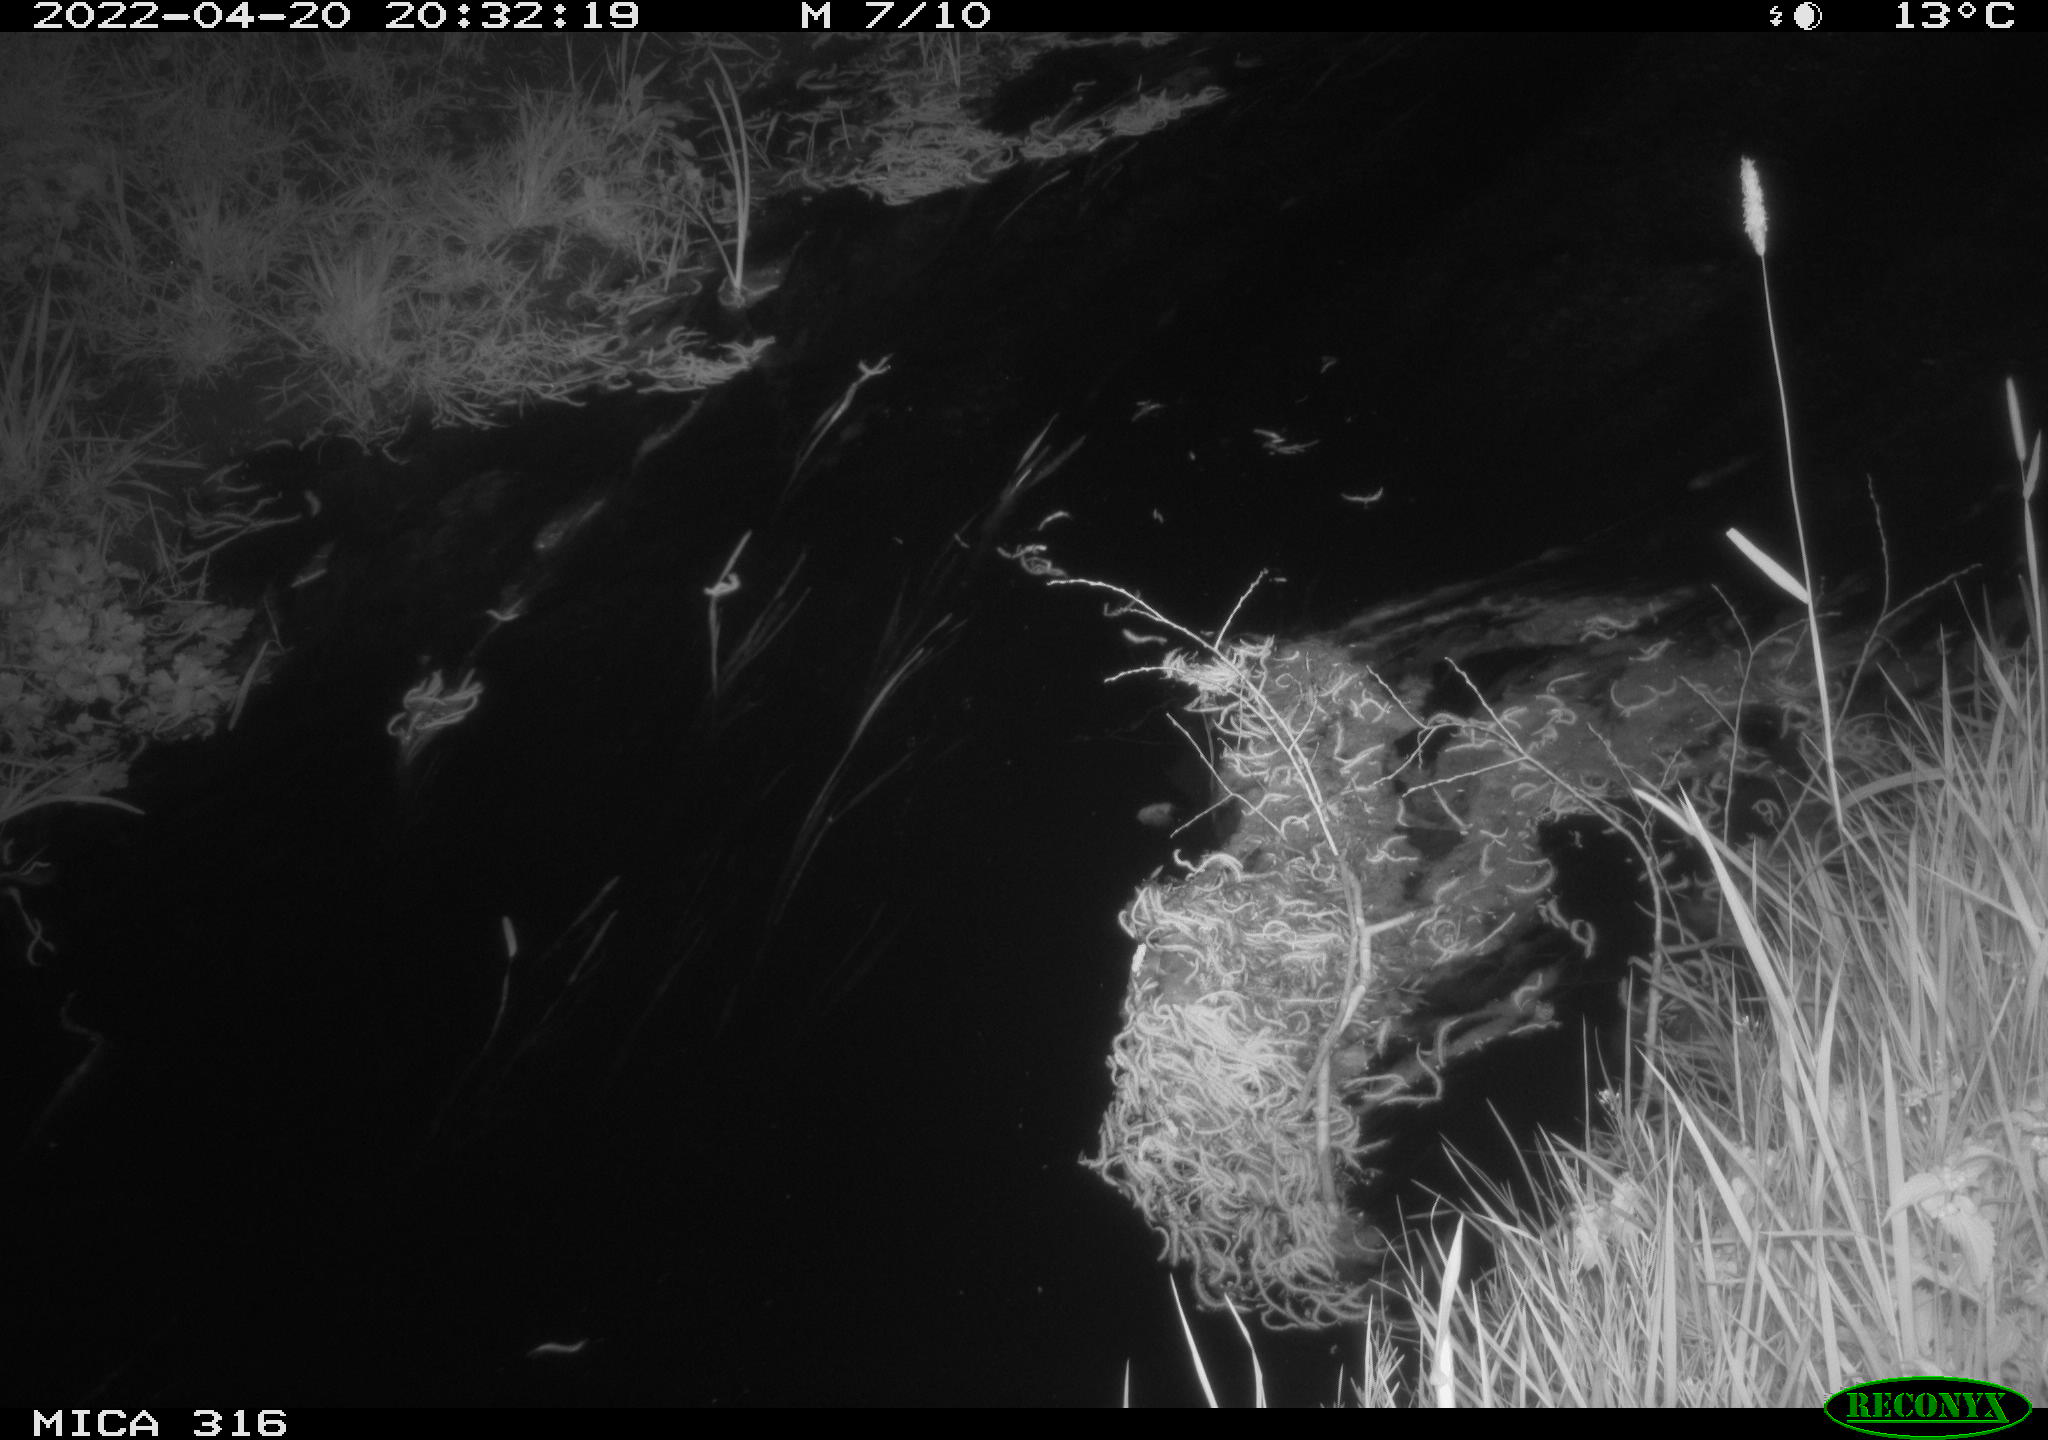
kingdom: Animalia
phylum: Chordata
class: Aves
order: Anseriformes
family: Anatidae
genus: Anas
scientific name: Anas platyrhynchos
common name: Mallard
